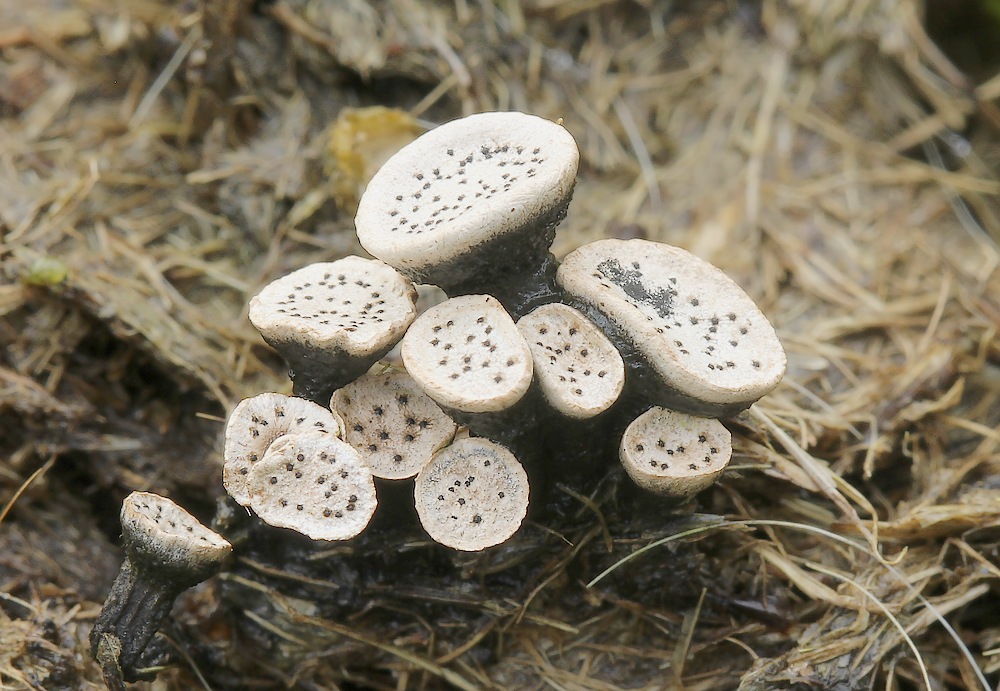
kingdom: Fungi
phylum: Ascomycota
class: Sordariomycetes
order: Xylariales
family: Xylariaceae
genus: Poronia
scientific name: Poronia punctata
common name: stor priksvamp
